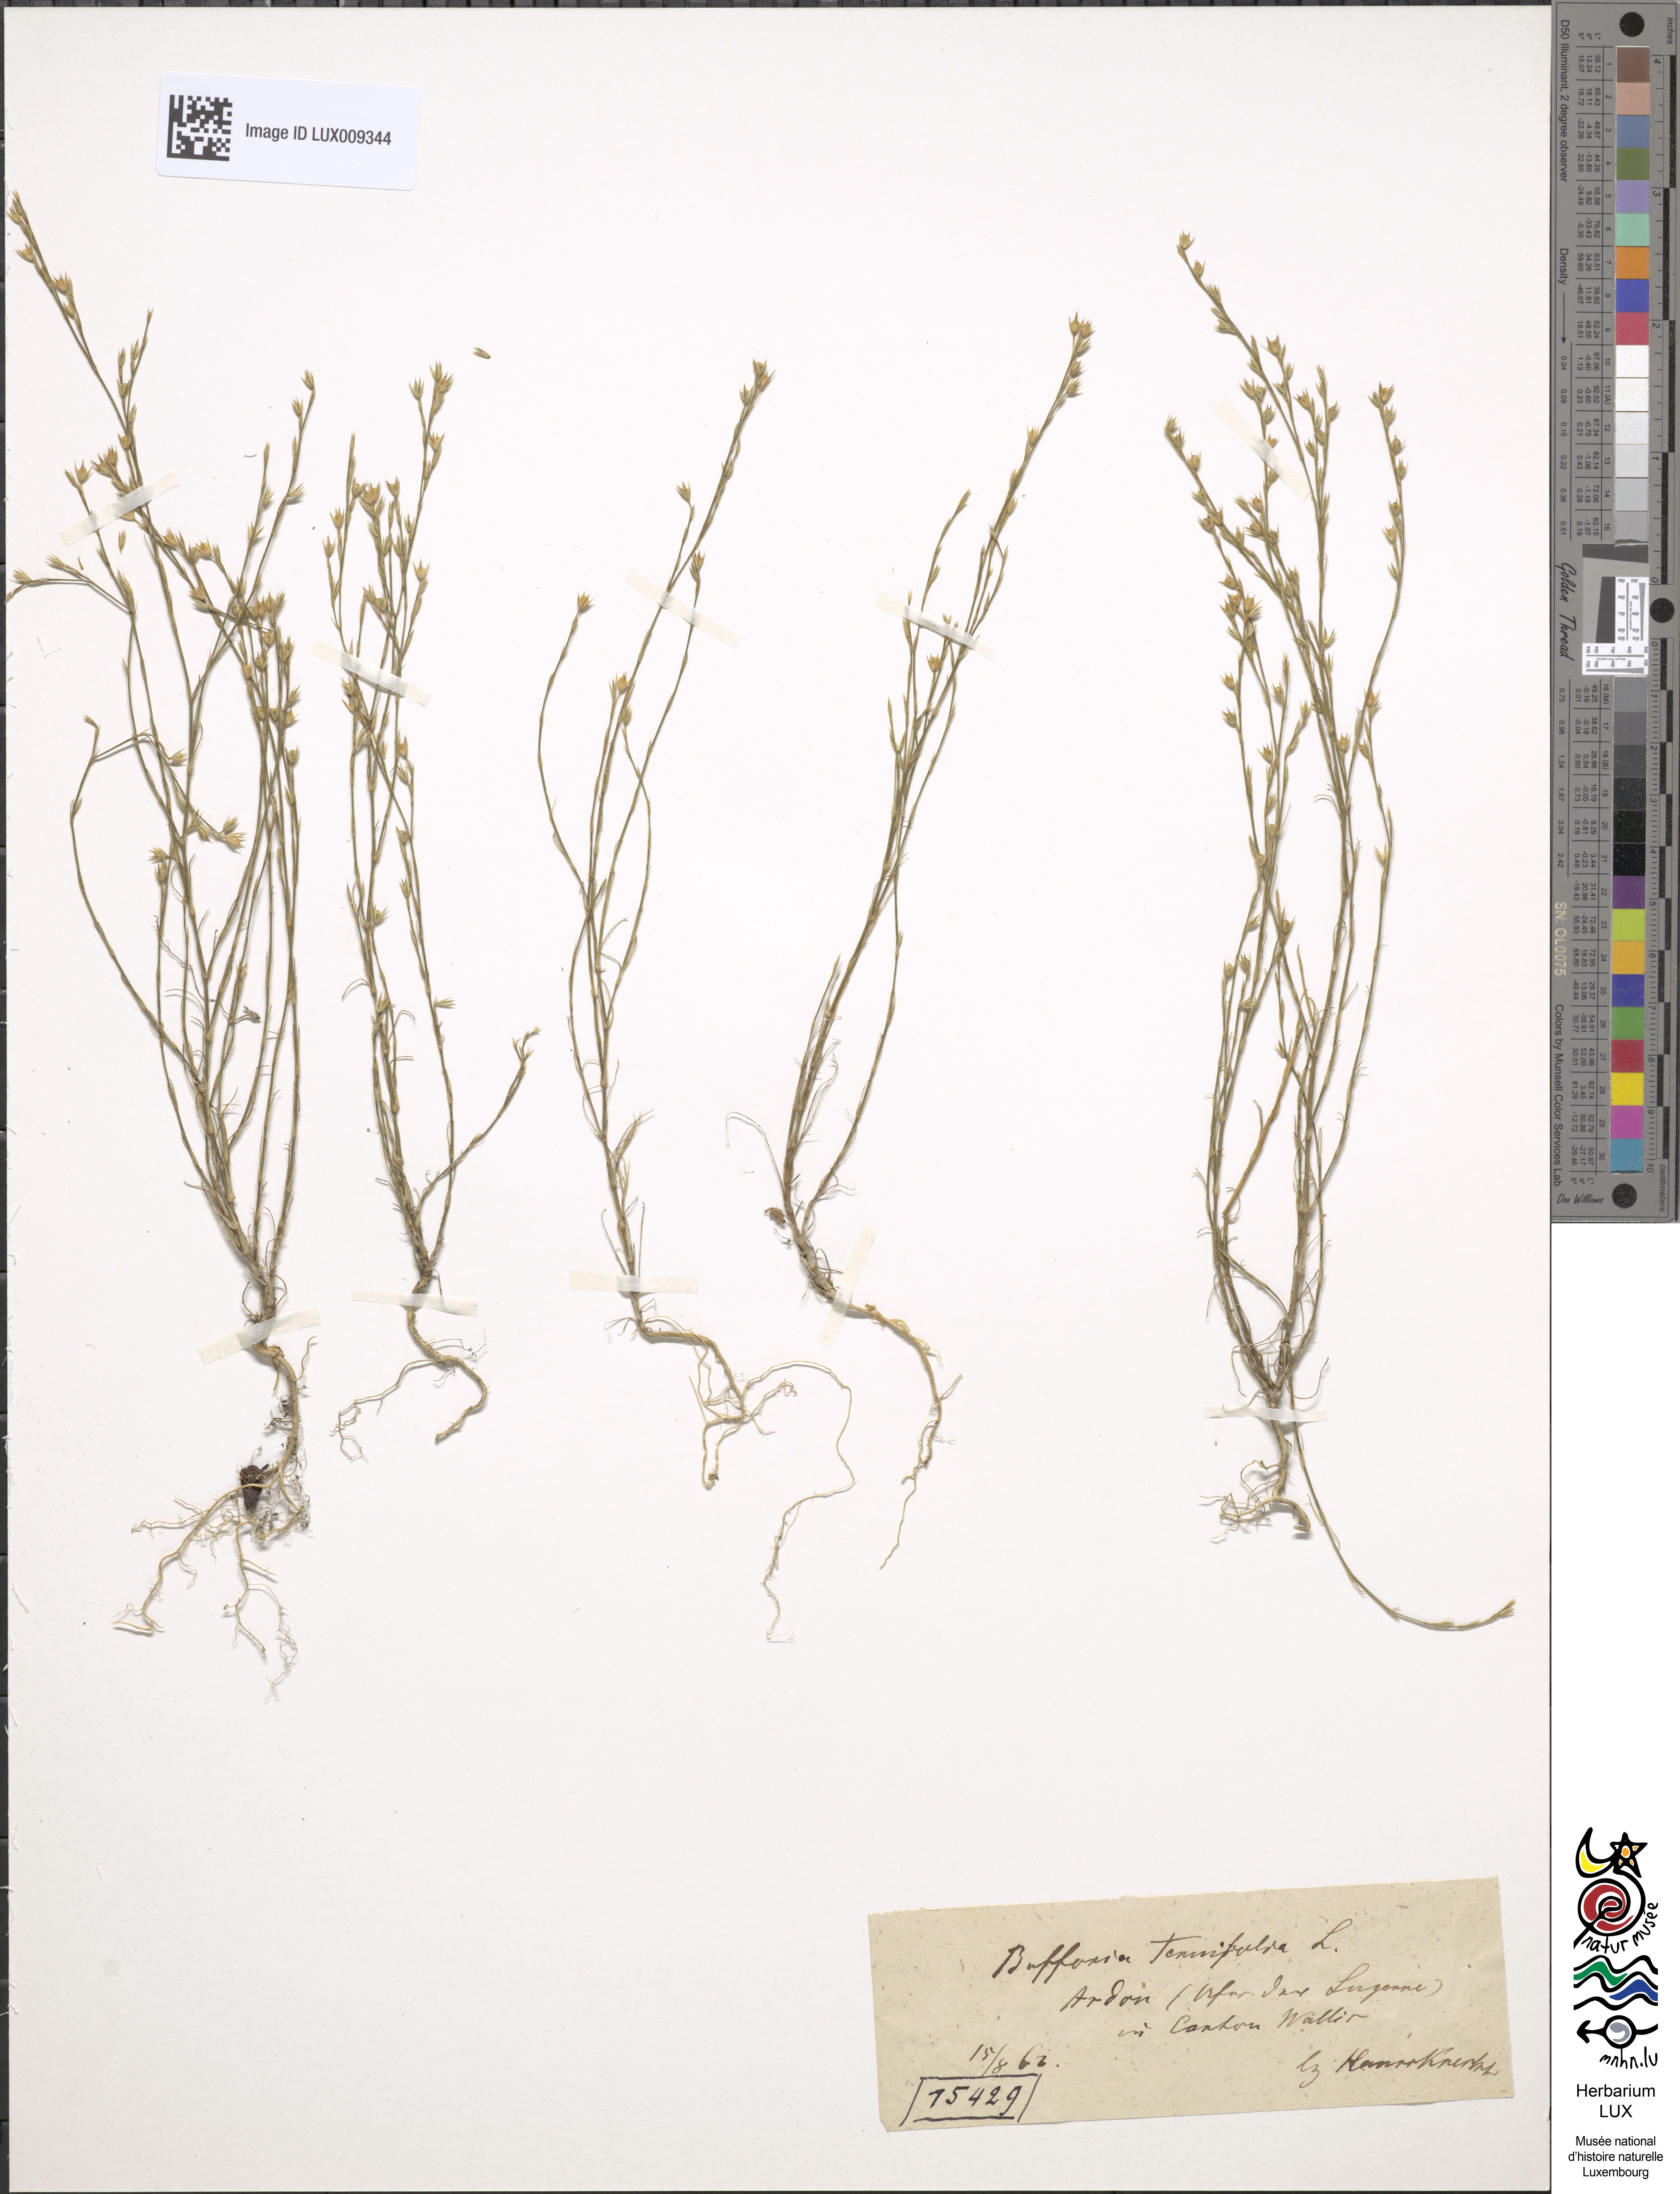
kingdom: Plantae
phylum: Tracheophyta
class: Magnoliopsida
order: Caryophyllales
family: Caryophyllaceae
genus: Bufonia
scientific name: Bufonia tenuifolia
